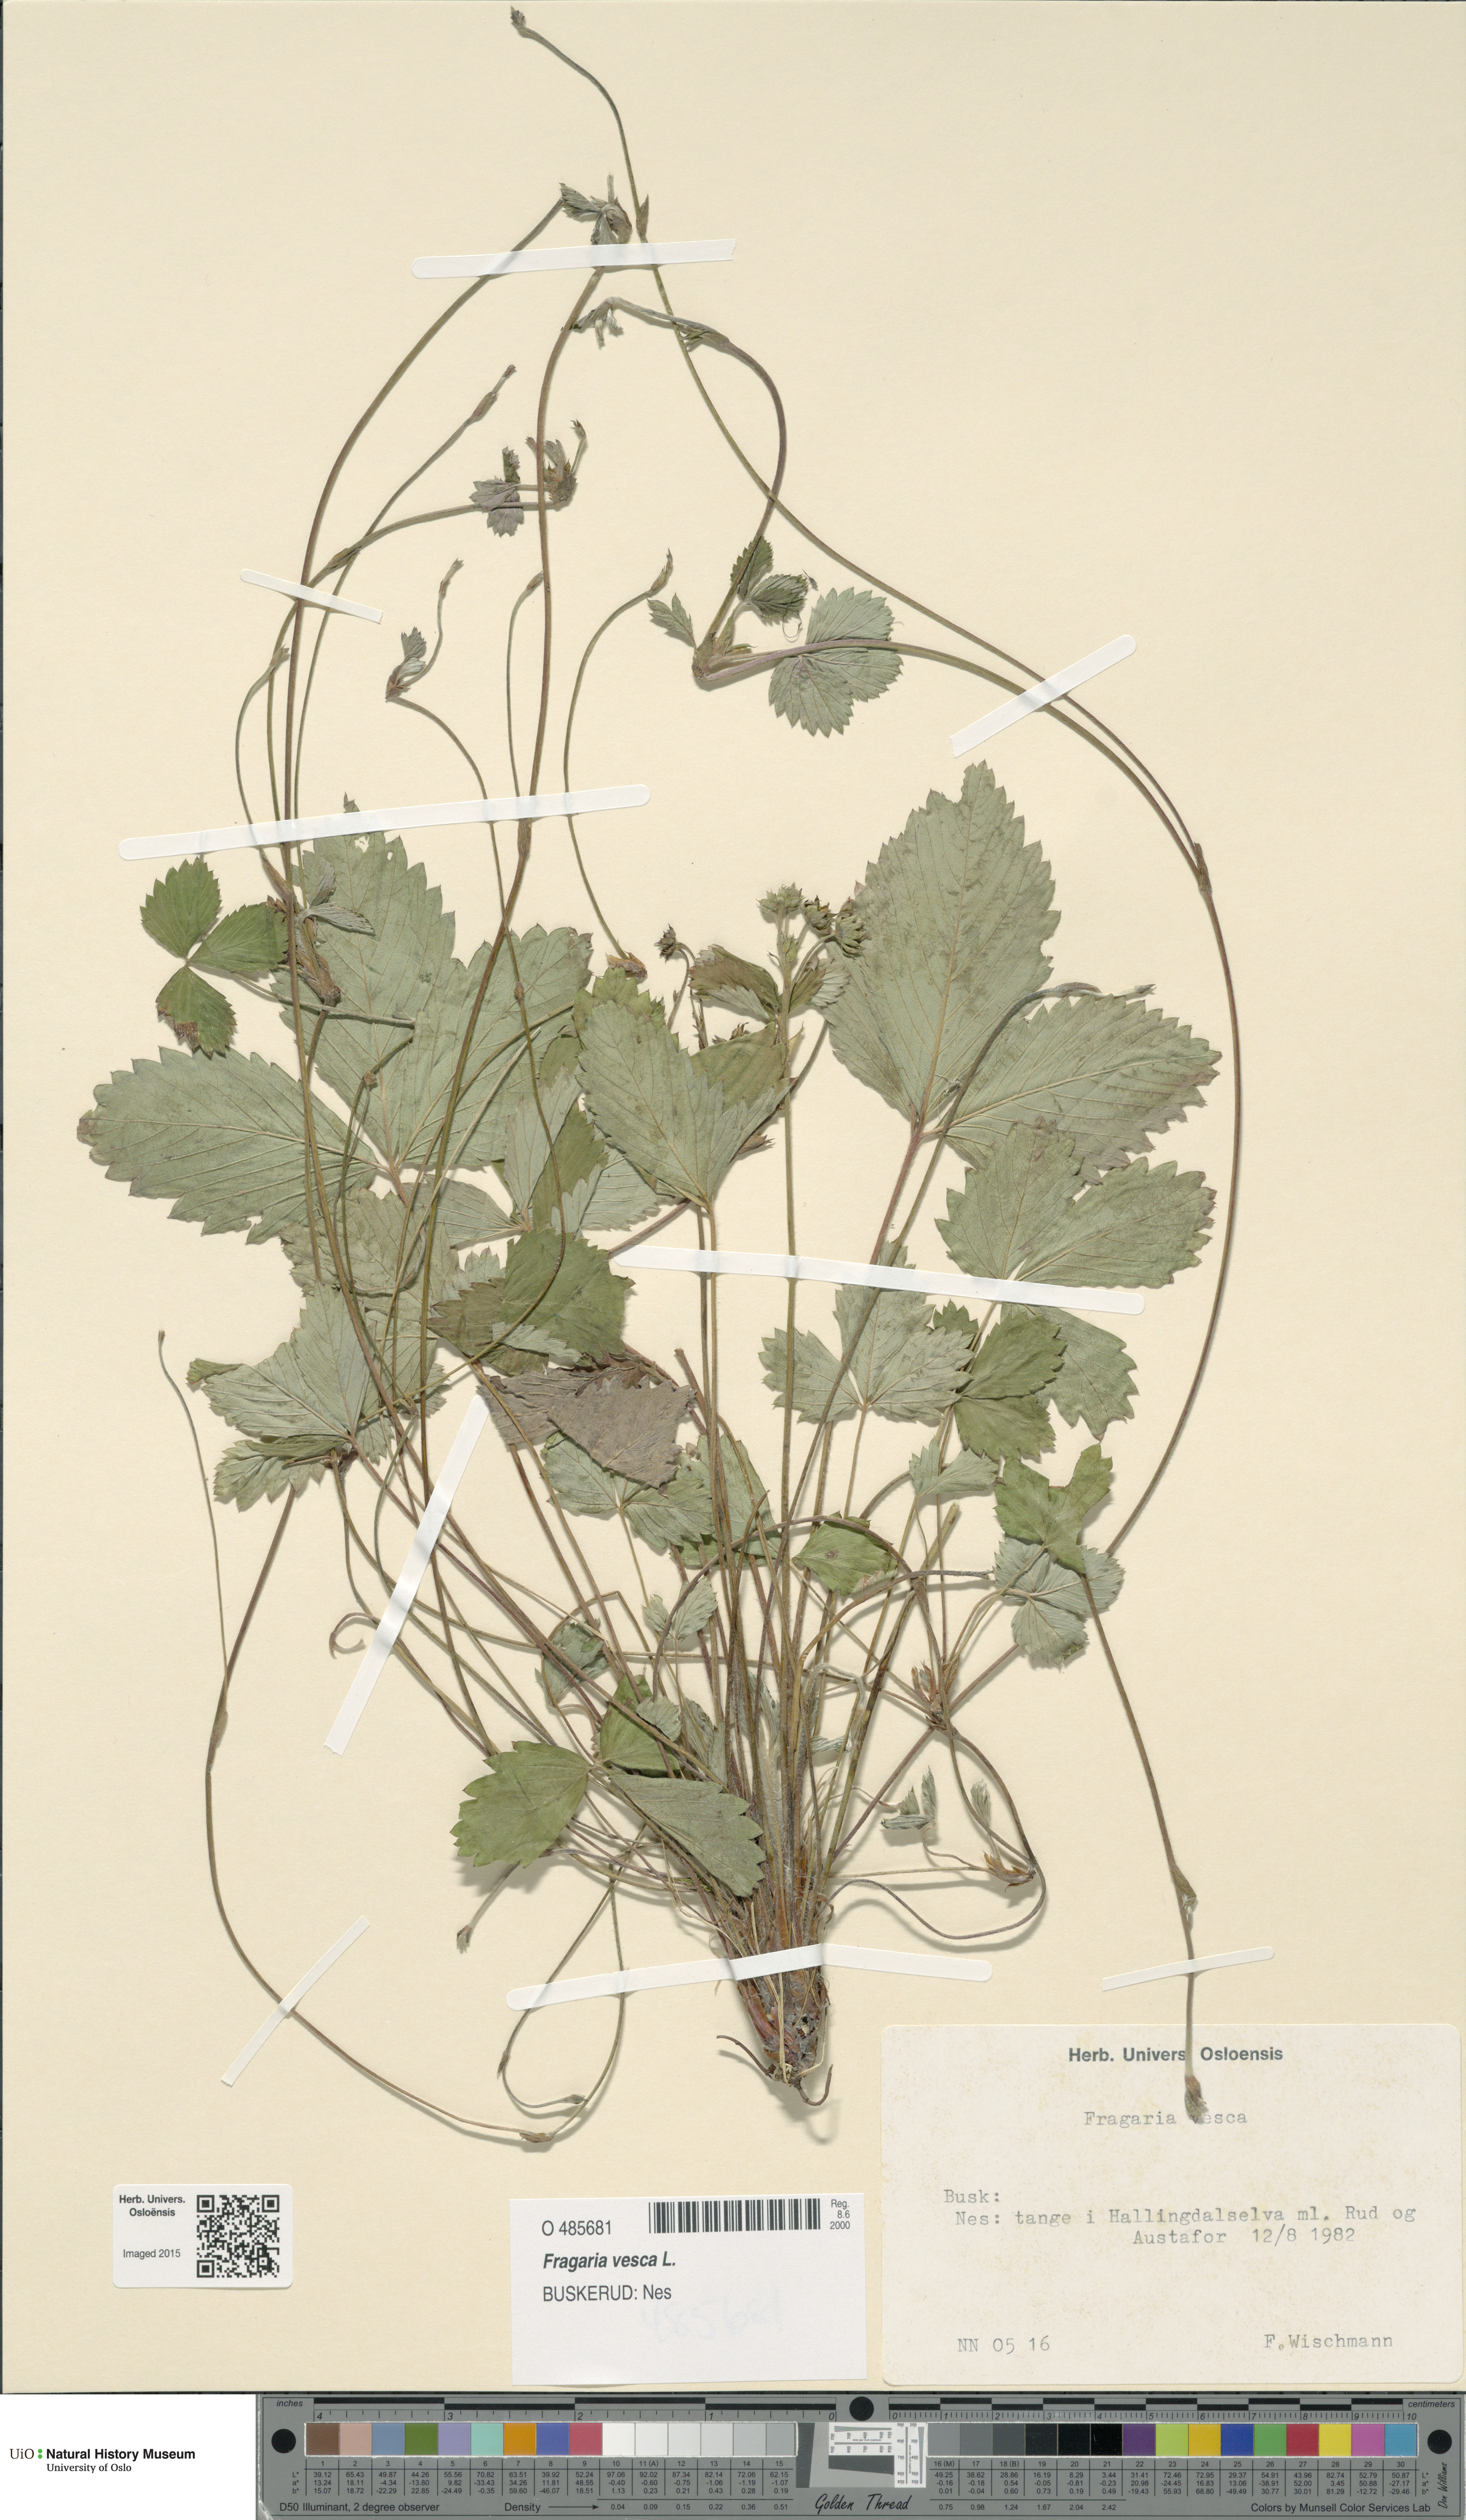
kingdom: Plantae
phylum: Tracheophyta
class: Magnoliopsida
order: Rosales
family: Rosaceae
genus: Fragaria
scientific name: Fragaria vesca
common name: Wild strawberry
